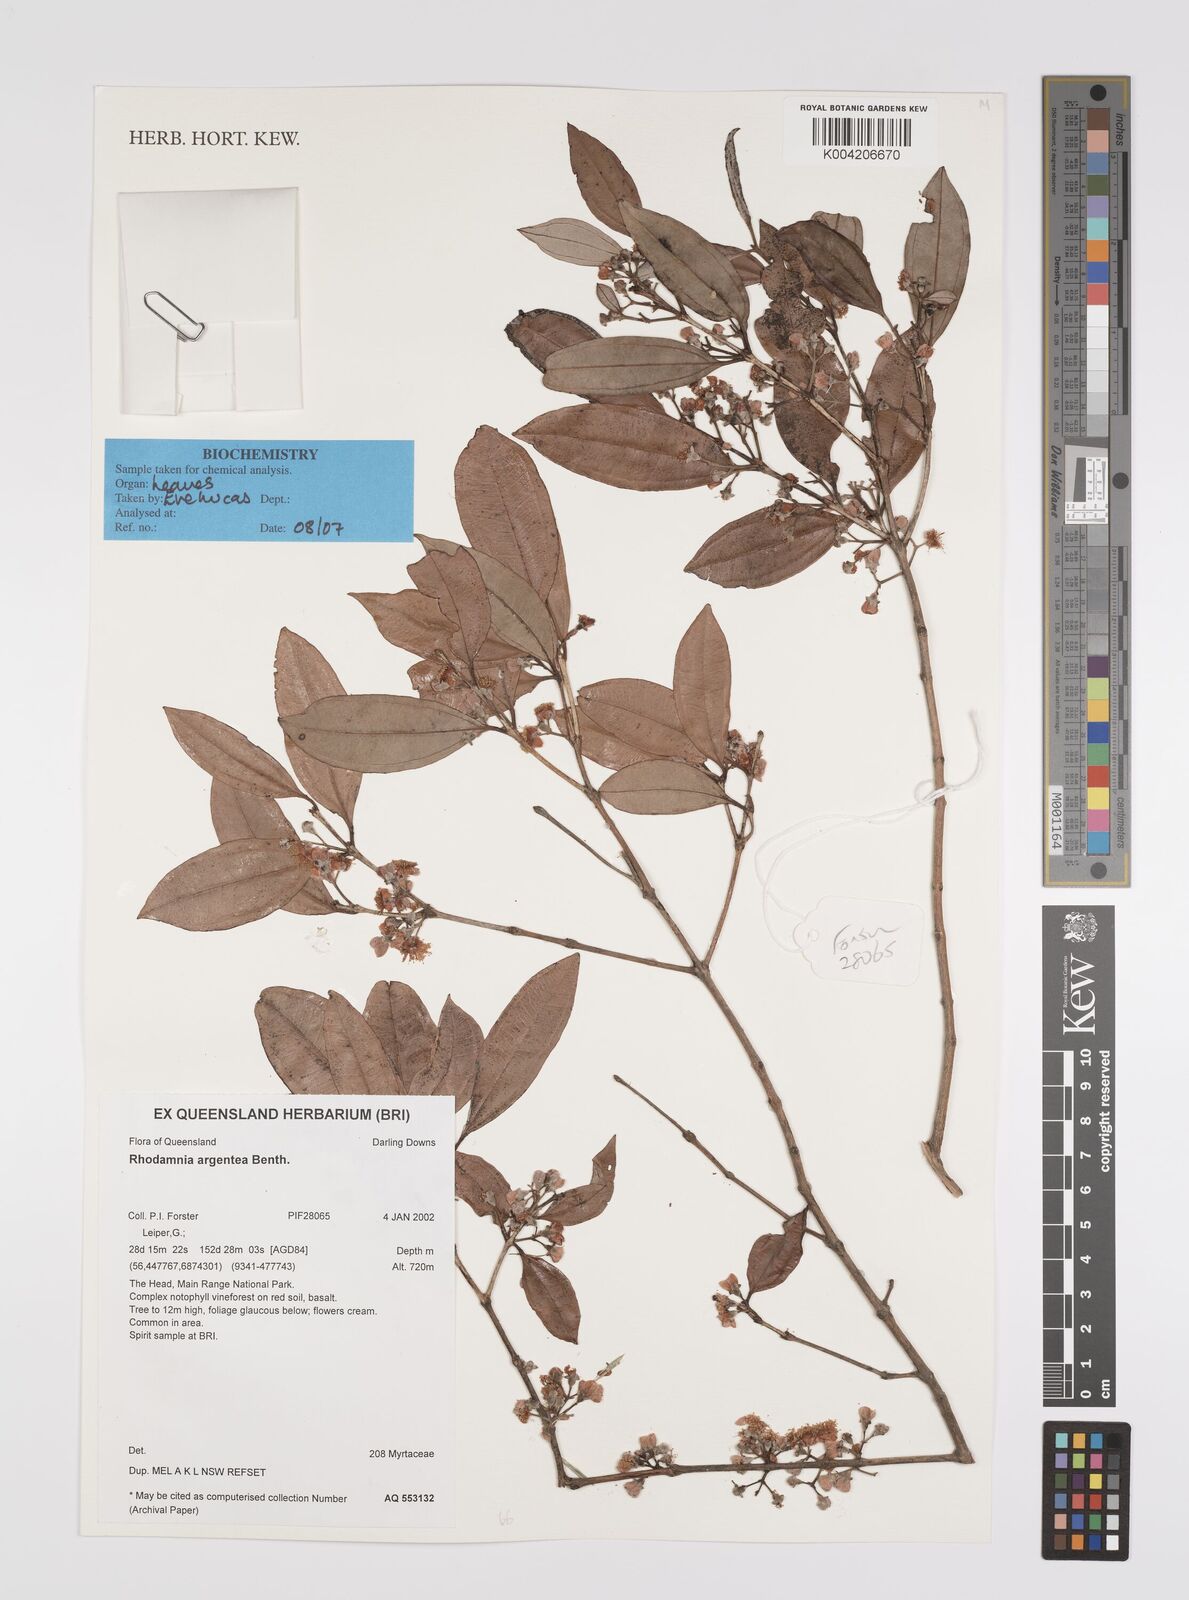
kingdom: Plantae
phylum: Tracheophyta
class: Magnoliopsida
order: Myrtales
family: Myrtaceae
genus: Rhodamnia
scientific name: Rhodamnia argentea
